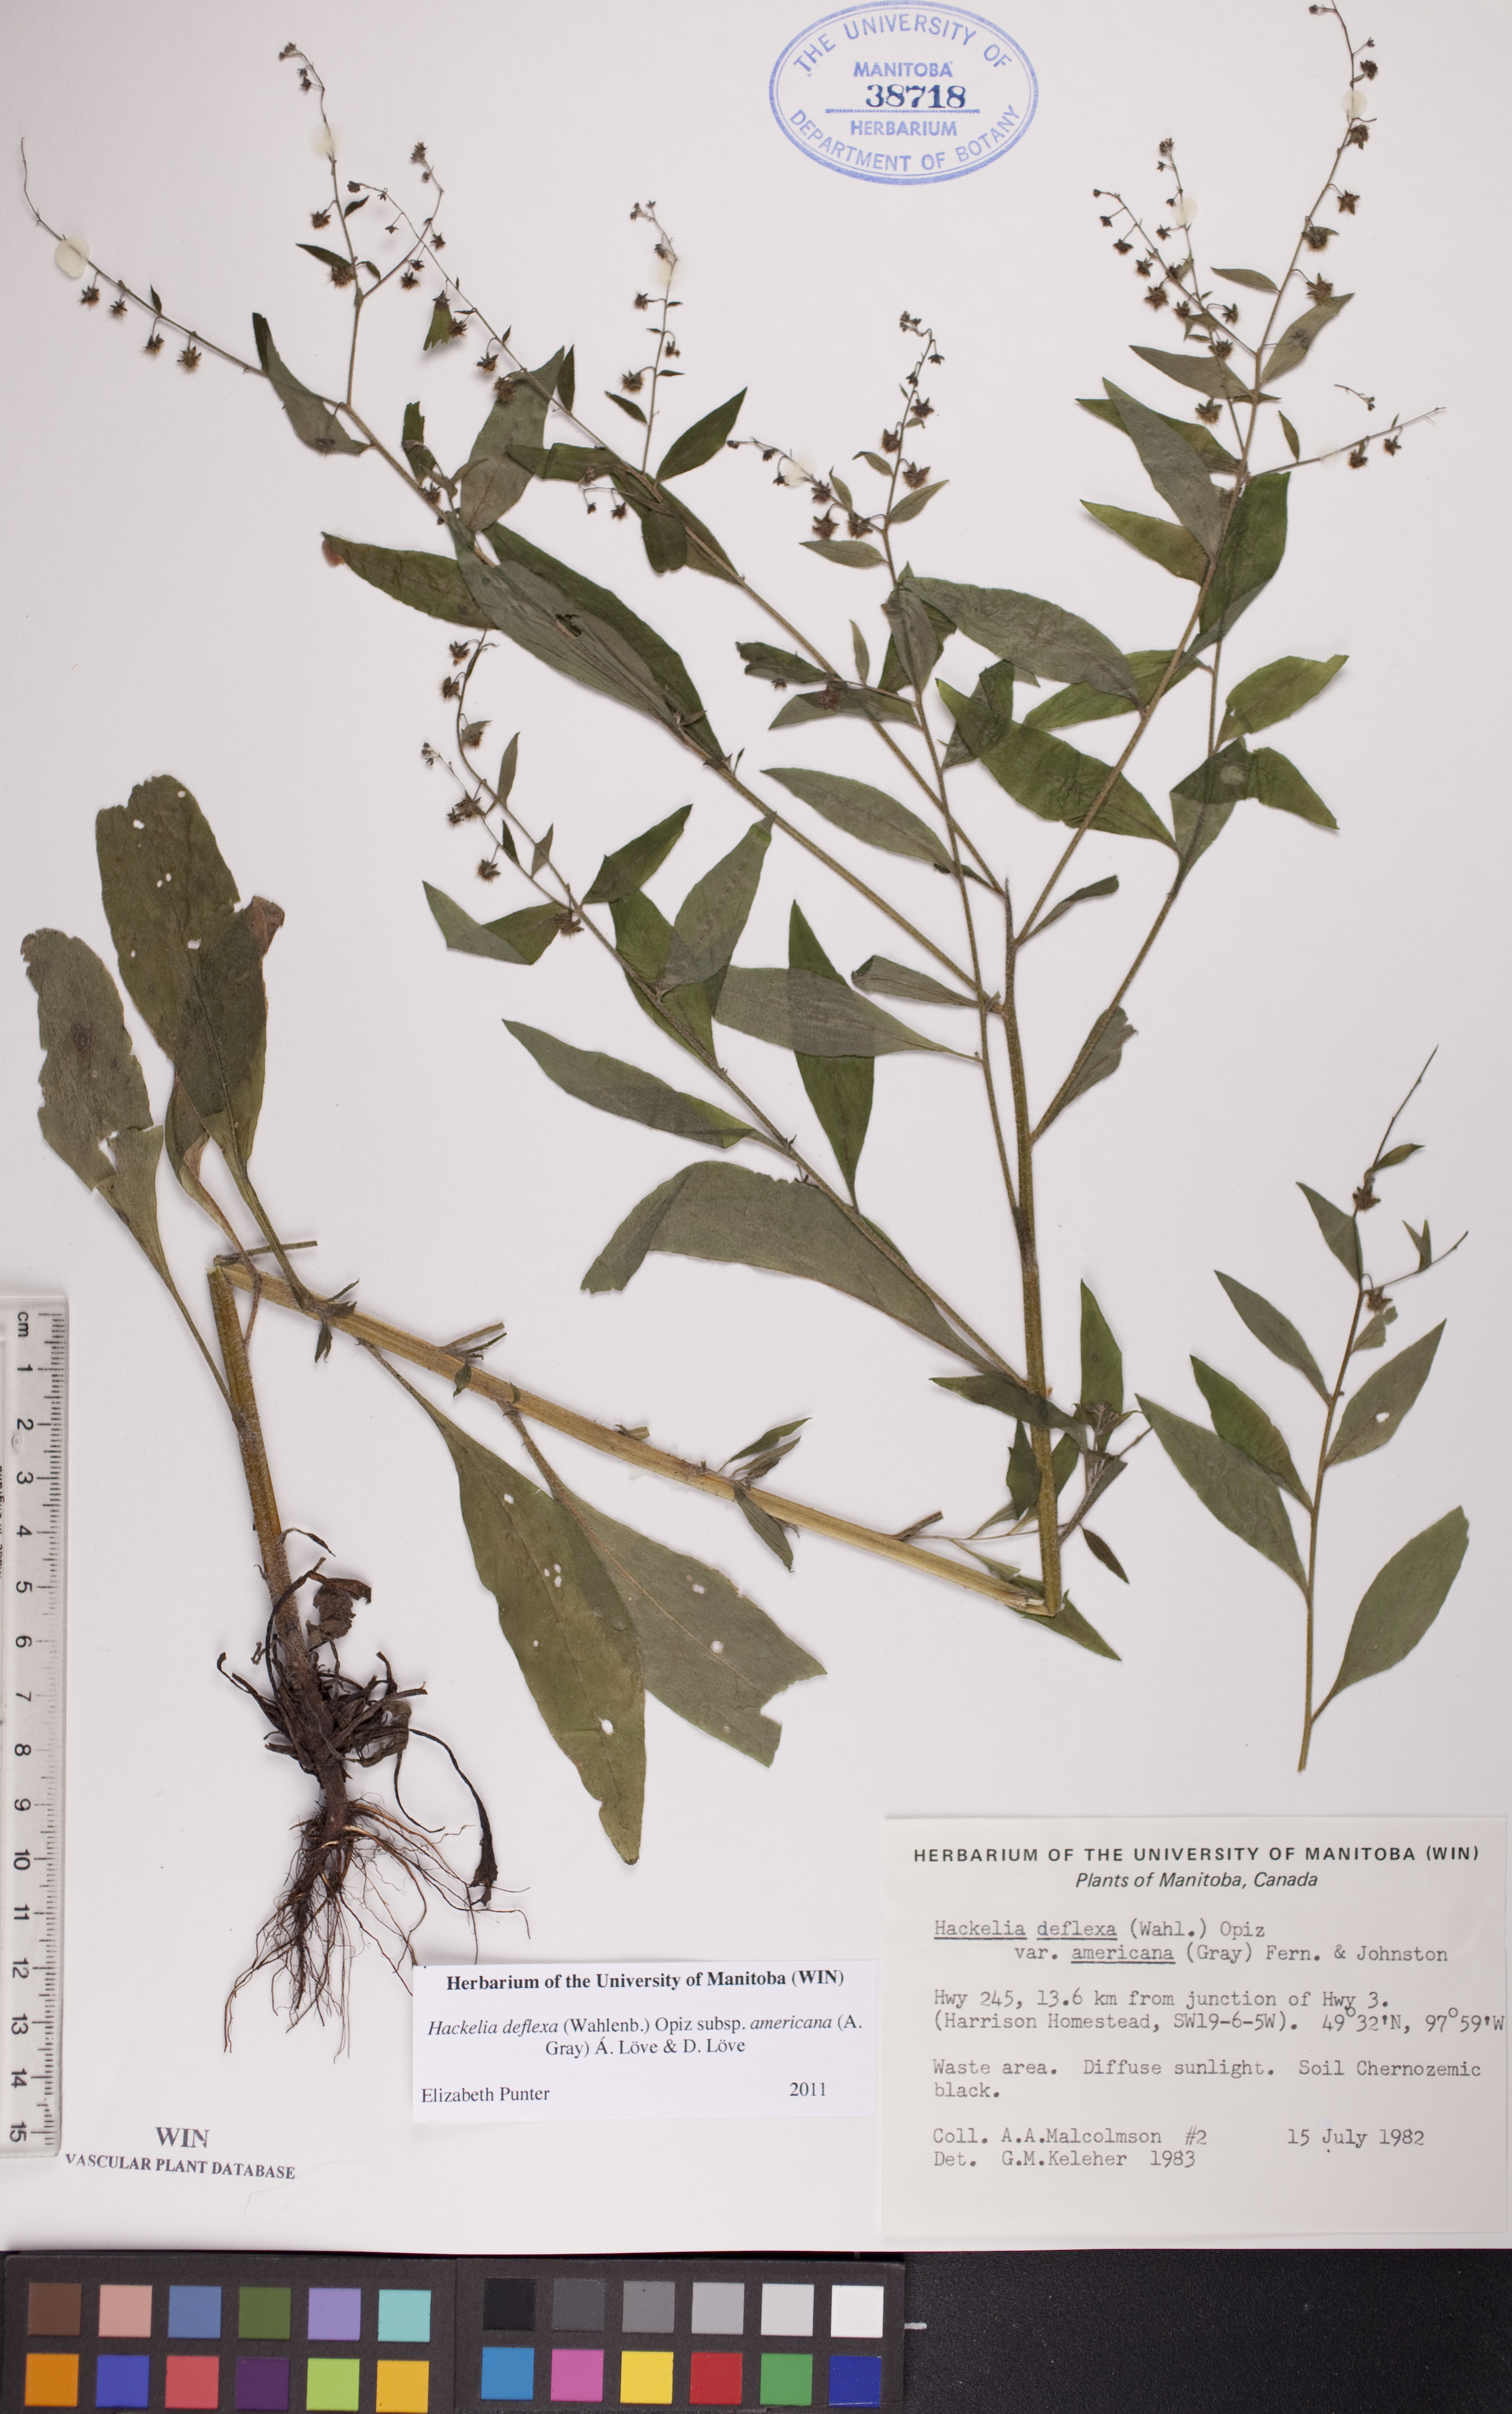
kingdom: Plantae
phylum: Tracheophyta
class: Magnoliopsida
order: Boraginales
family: Boraginaceae
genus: Hackelia
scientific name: Hackelia deflexa
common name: Nodding stickseed
